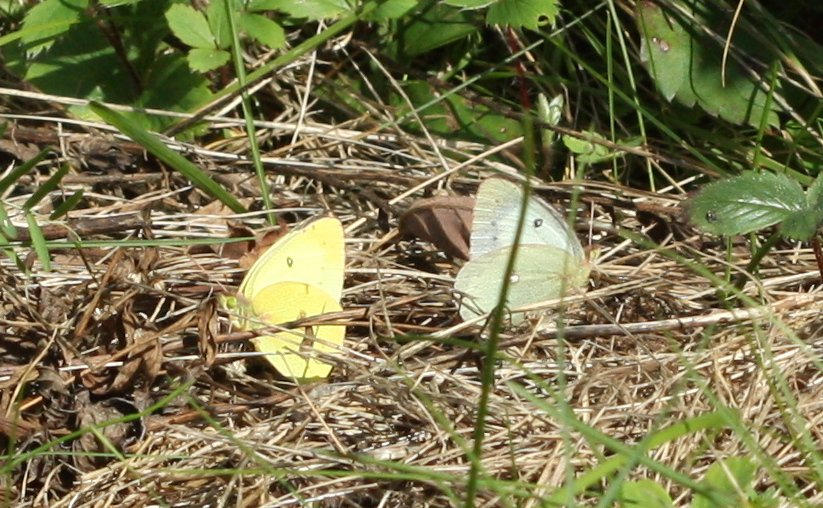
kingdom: Animalia
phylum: Arthropoda
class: Insecta
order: Lepidoptera
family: Pieridae
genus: Colias
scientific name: Colias philodice
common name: Clouded Sulphur
